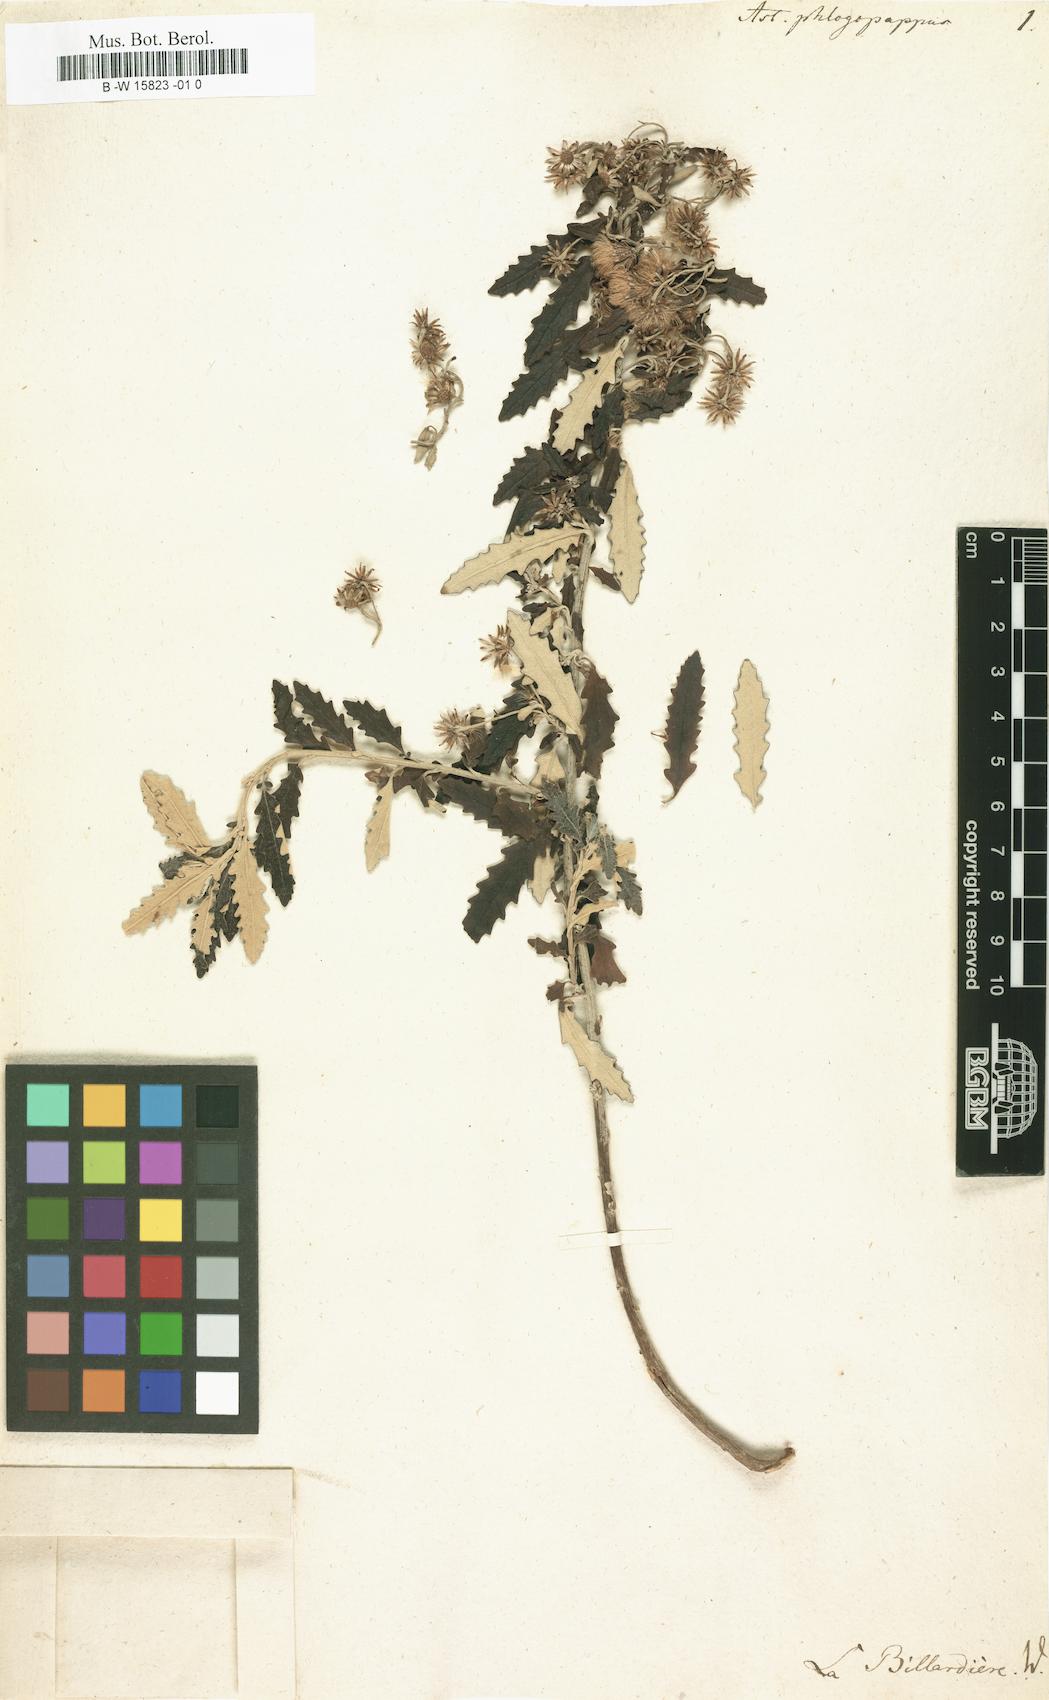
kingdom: Plantae
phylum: Tracheophyta
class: Magnoliopsida
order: Asterales
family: Asteraceae
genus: Olearia
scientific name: Olearia phlogopappa
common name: Alpine daisybush
